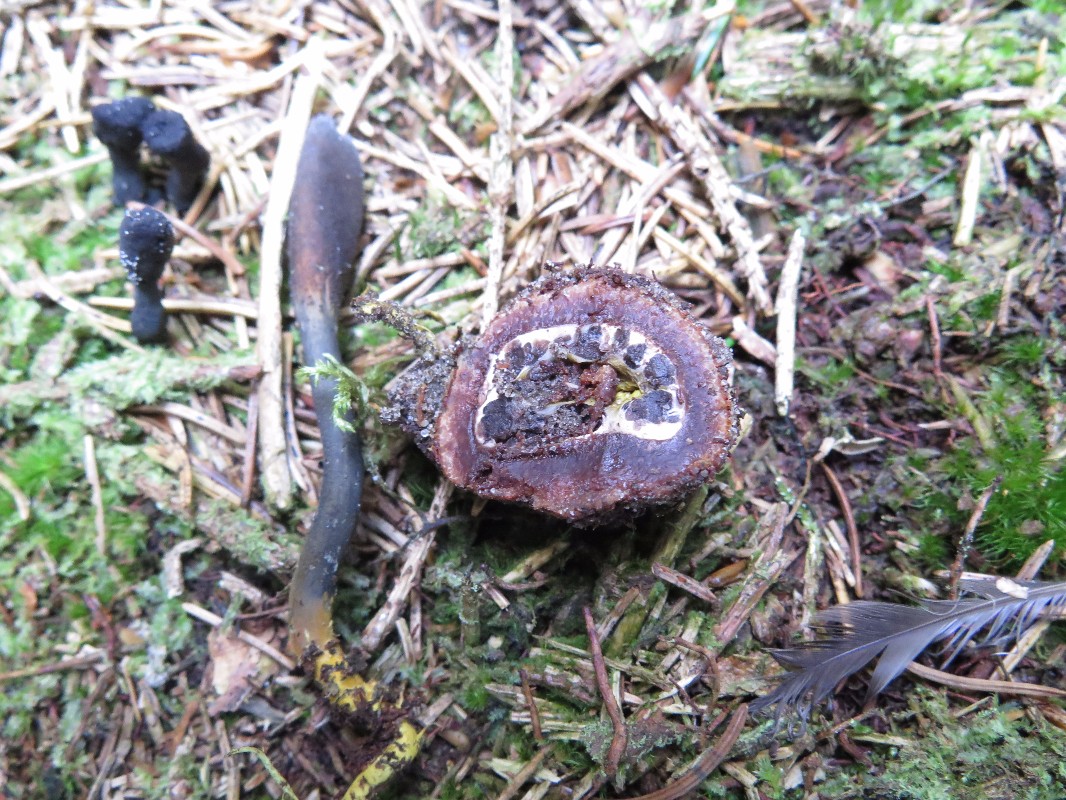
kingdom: Fungi
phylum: Ascomycota
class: Eurotiomycetes
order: Eurotiales
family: Elaphomycetaceae
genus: Elaphomyces
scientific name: Elaphomyces muricatus
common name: vortet hjortetrøffel
